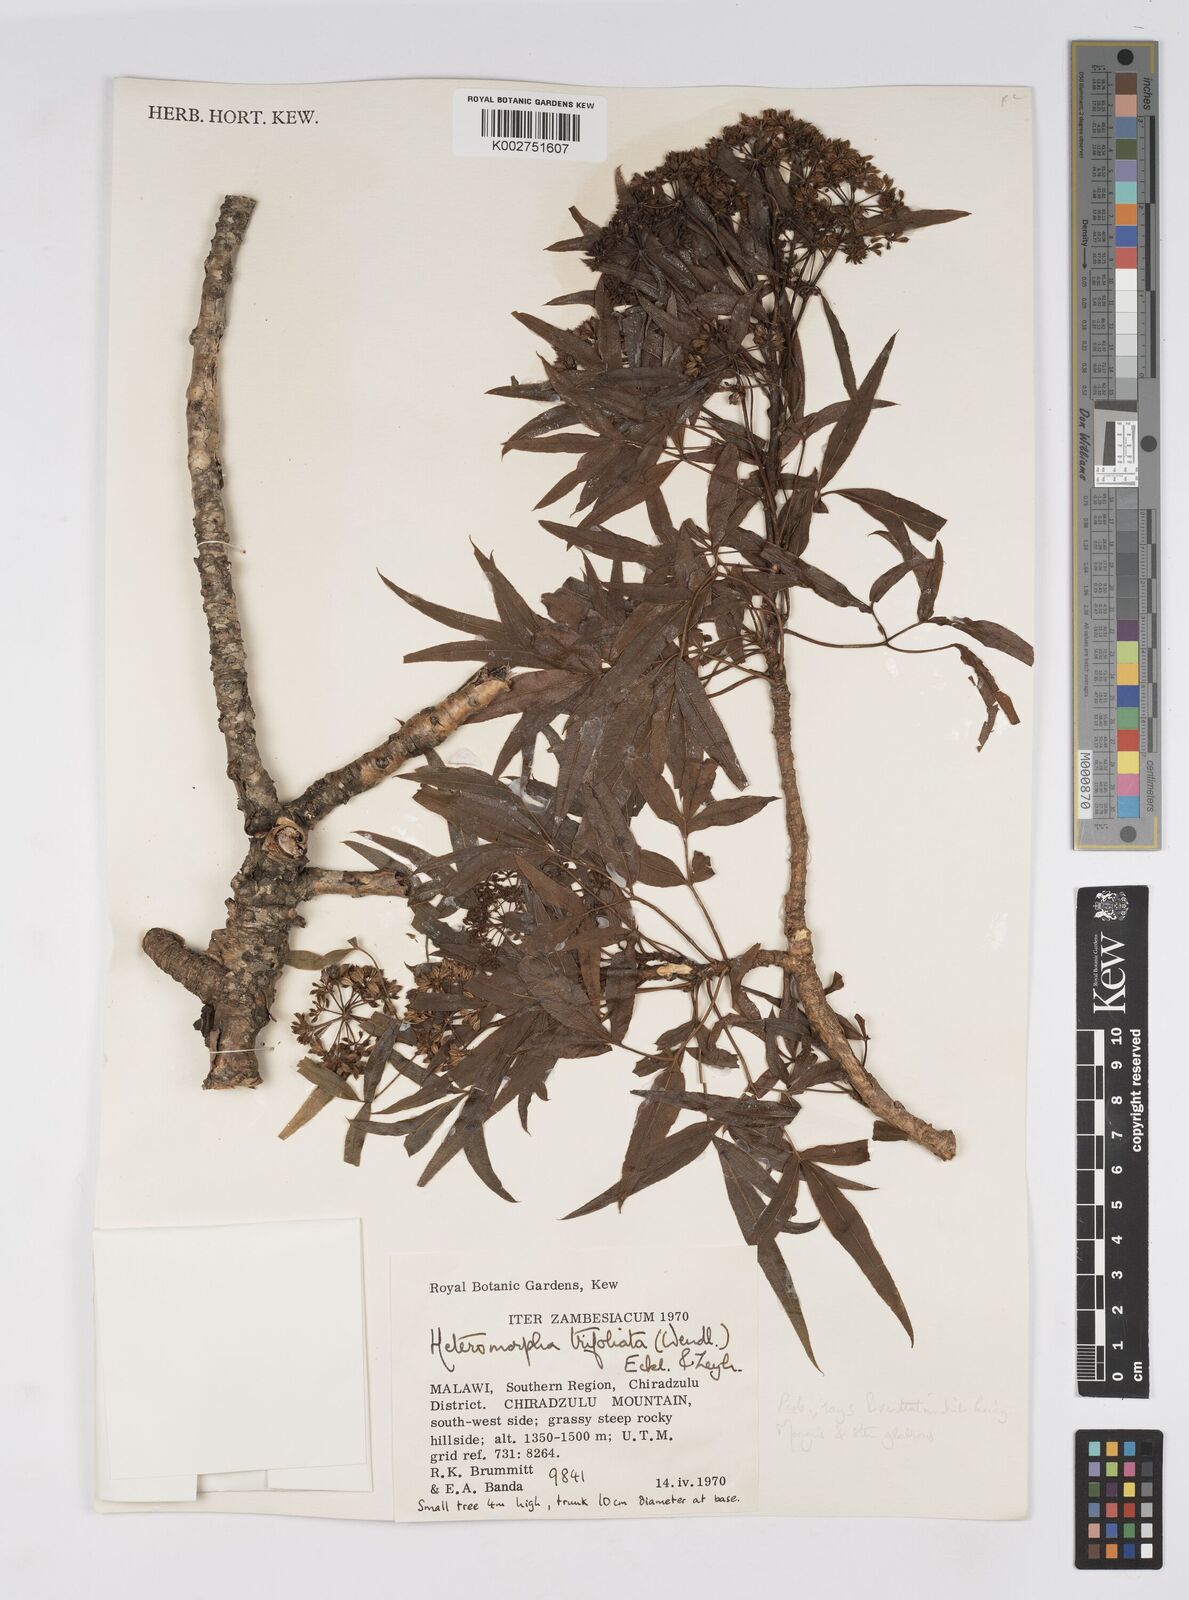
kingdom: Plantae
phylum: Tracheophyta
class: Magnoliopsida
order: Apiales
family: Apiaceae
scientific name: Apiaceae
